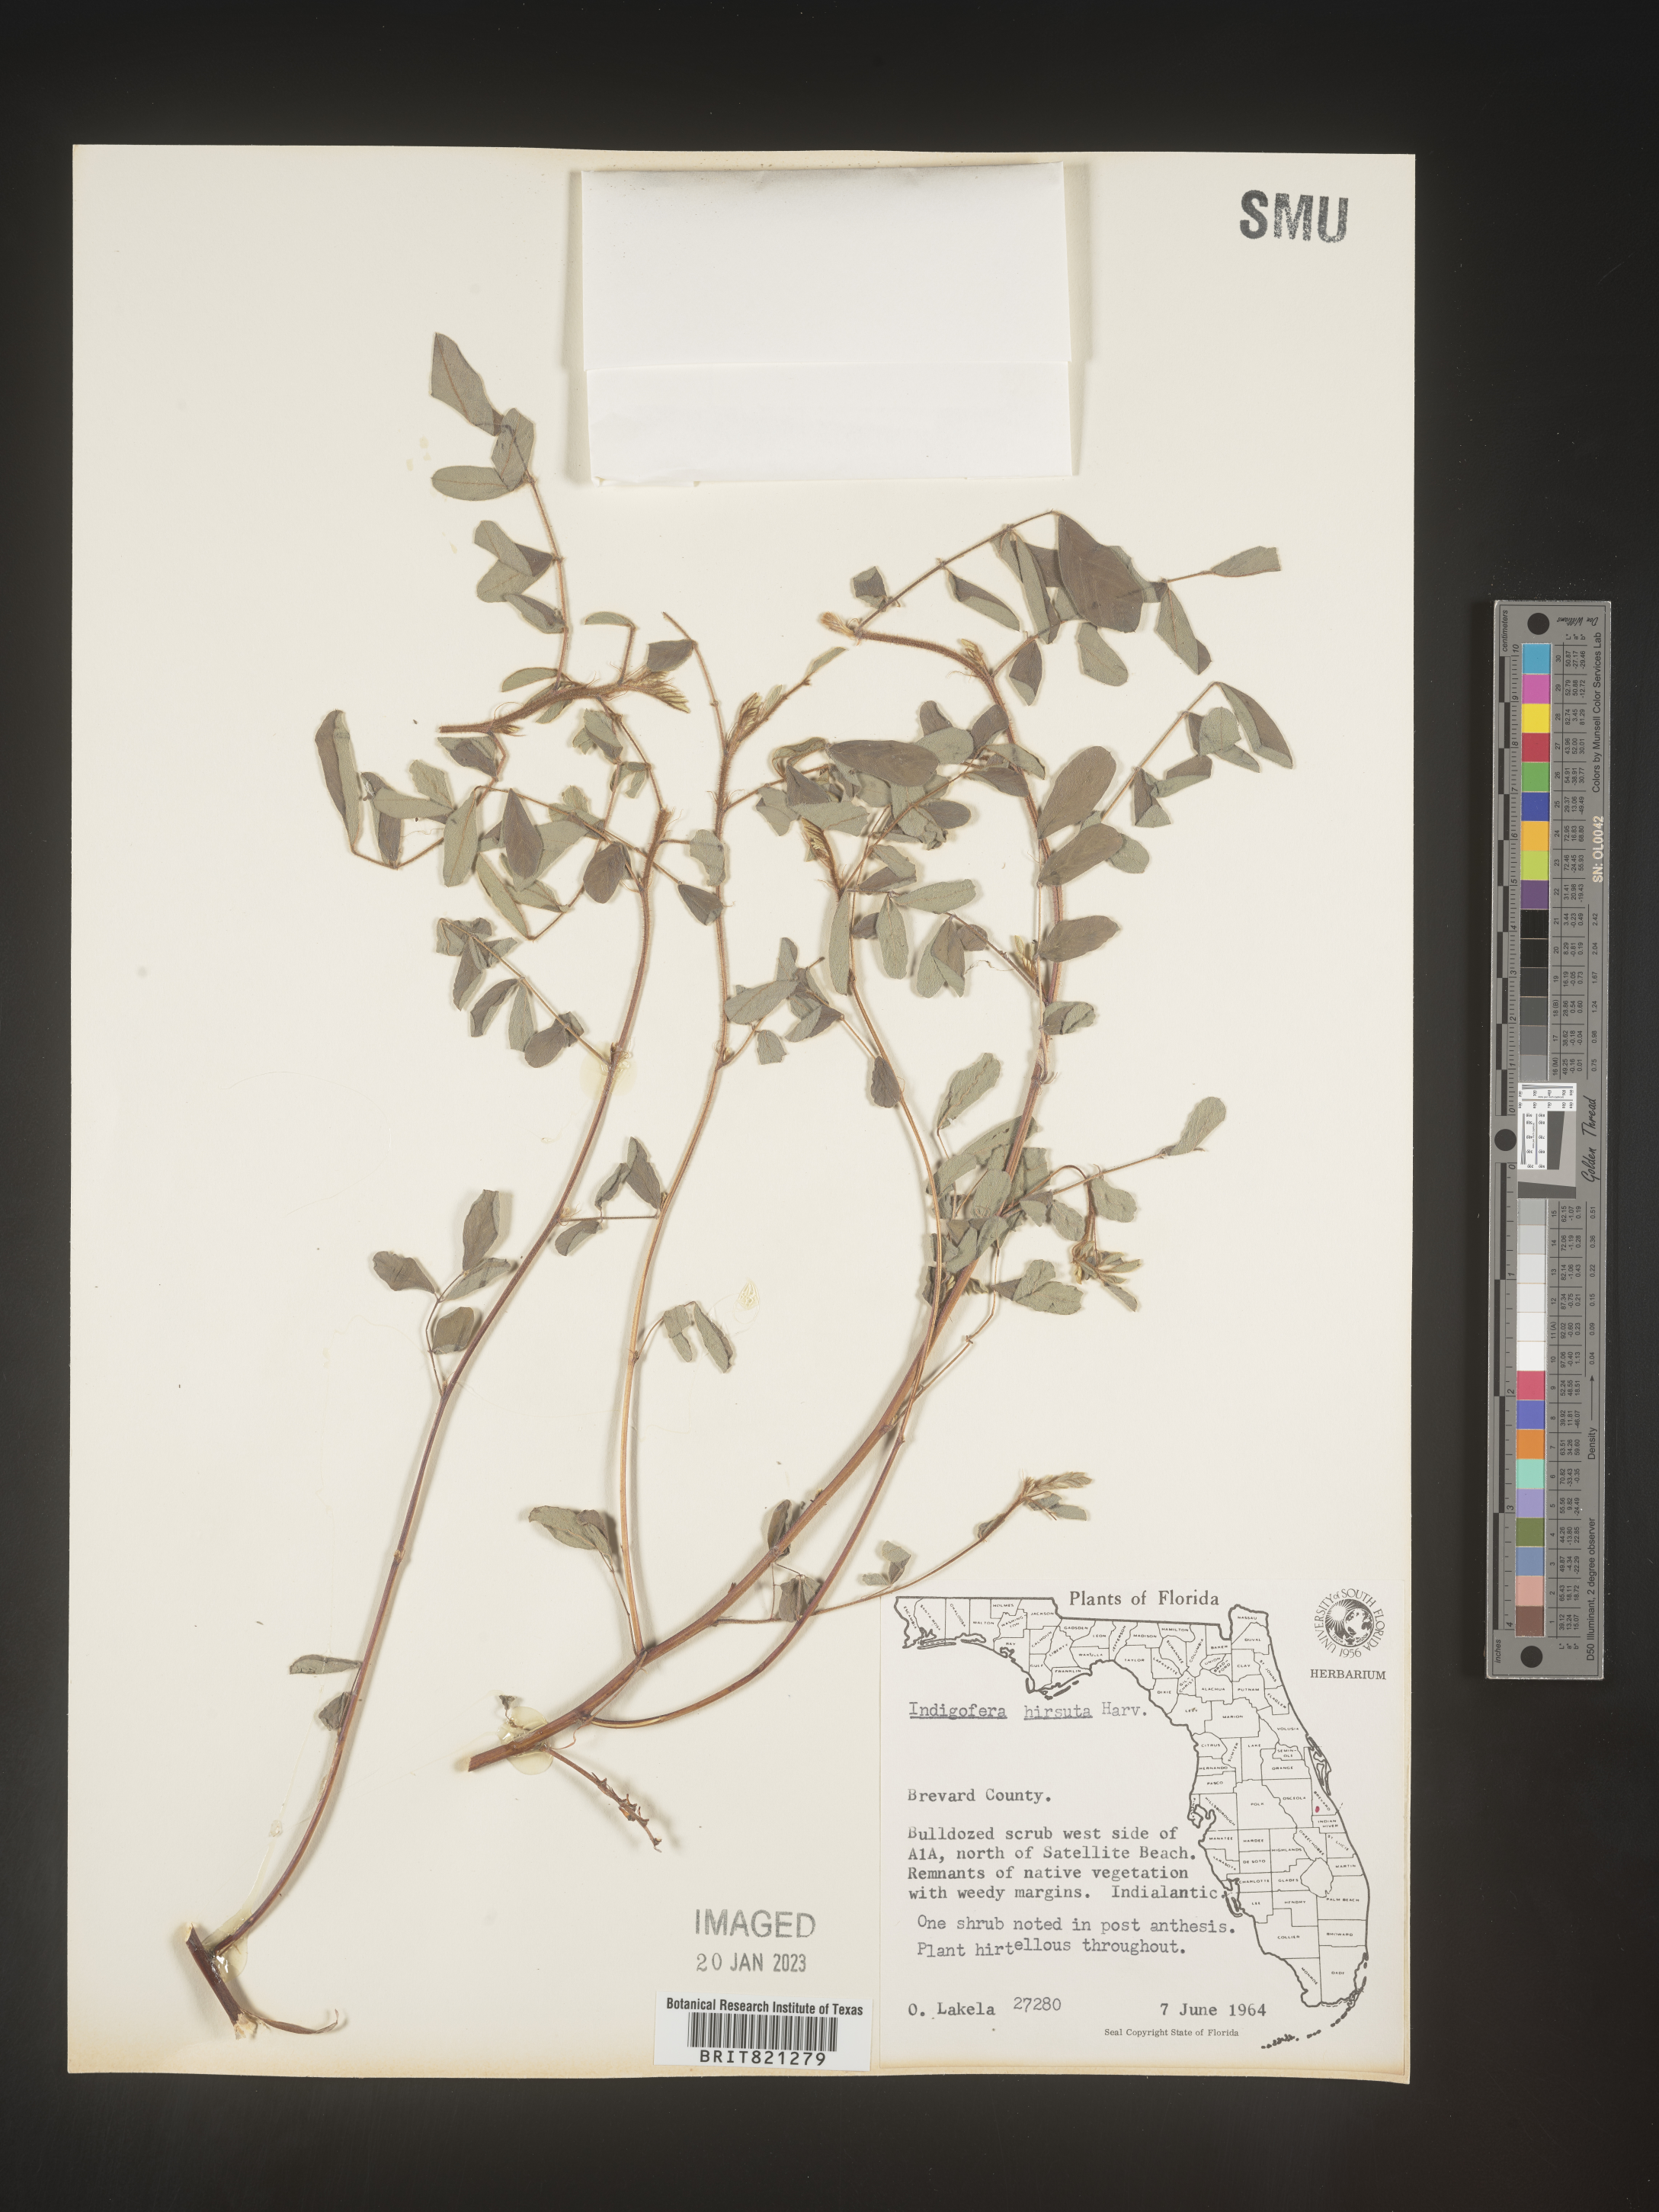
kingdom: Plantae
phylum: Tracheophyta
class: Magnoliopsida
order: Fabales
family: Fabaceae
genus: Indigofera
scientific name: Indigofera
